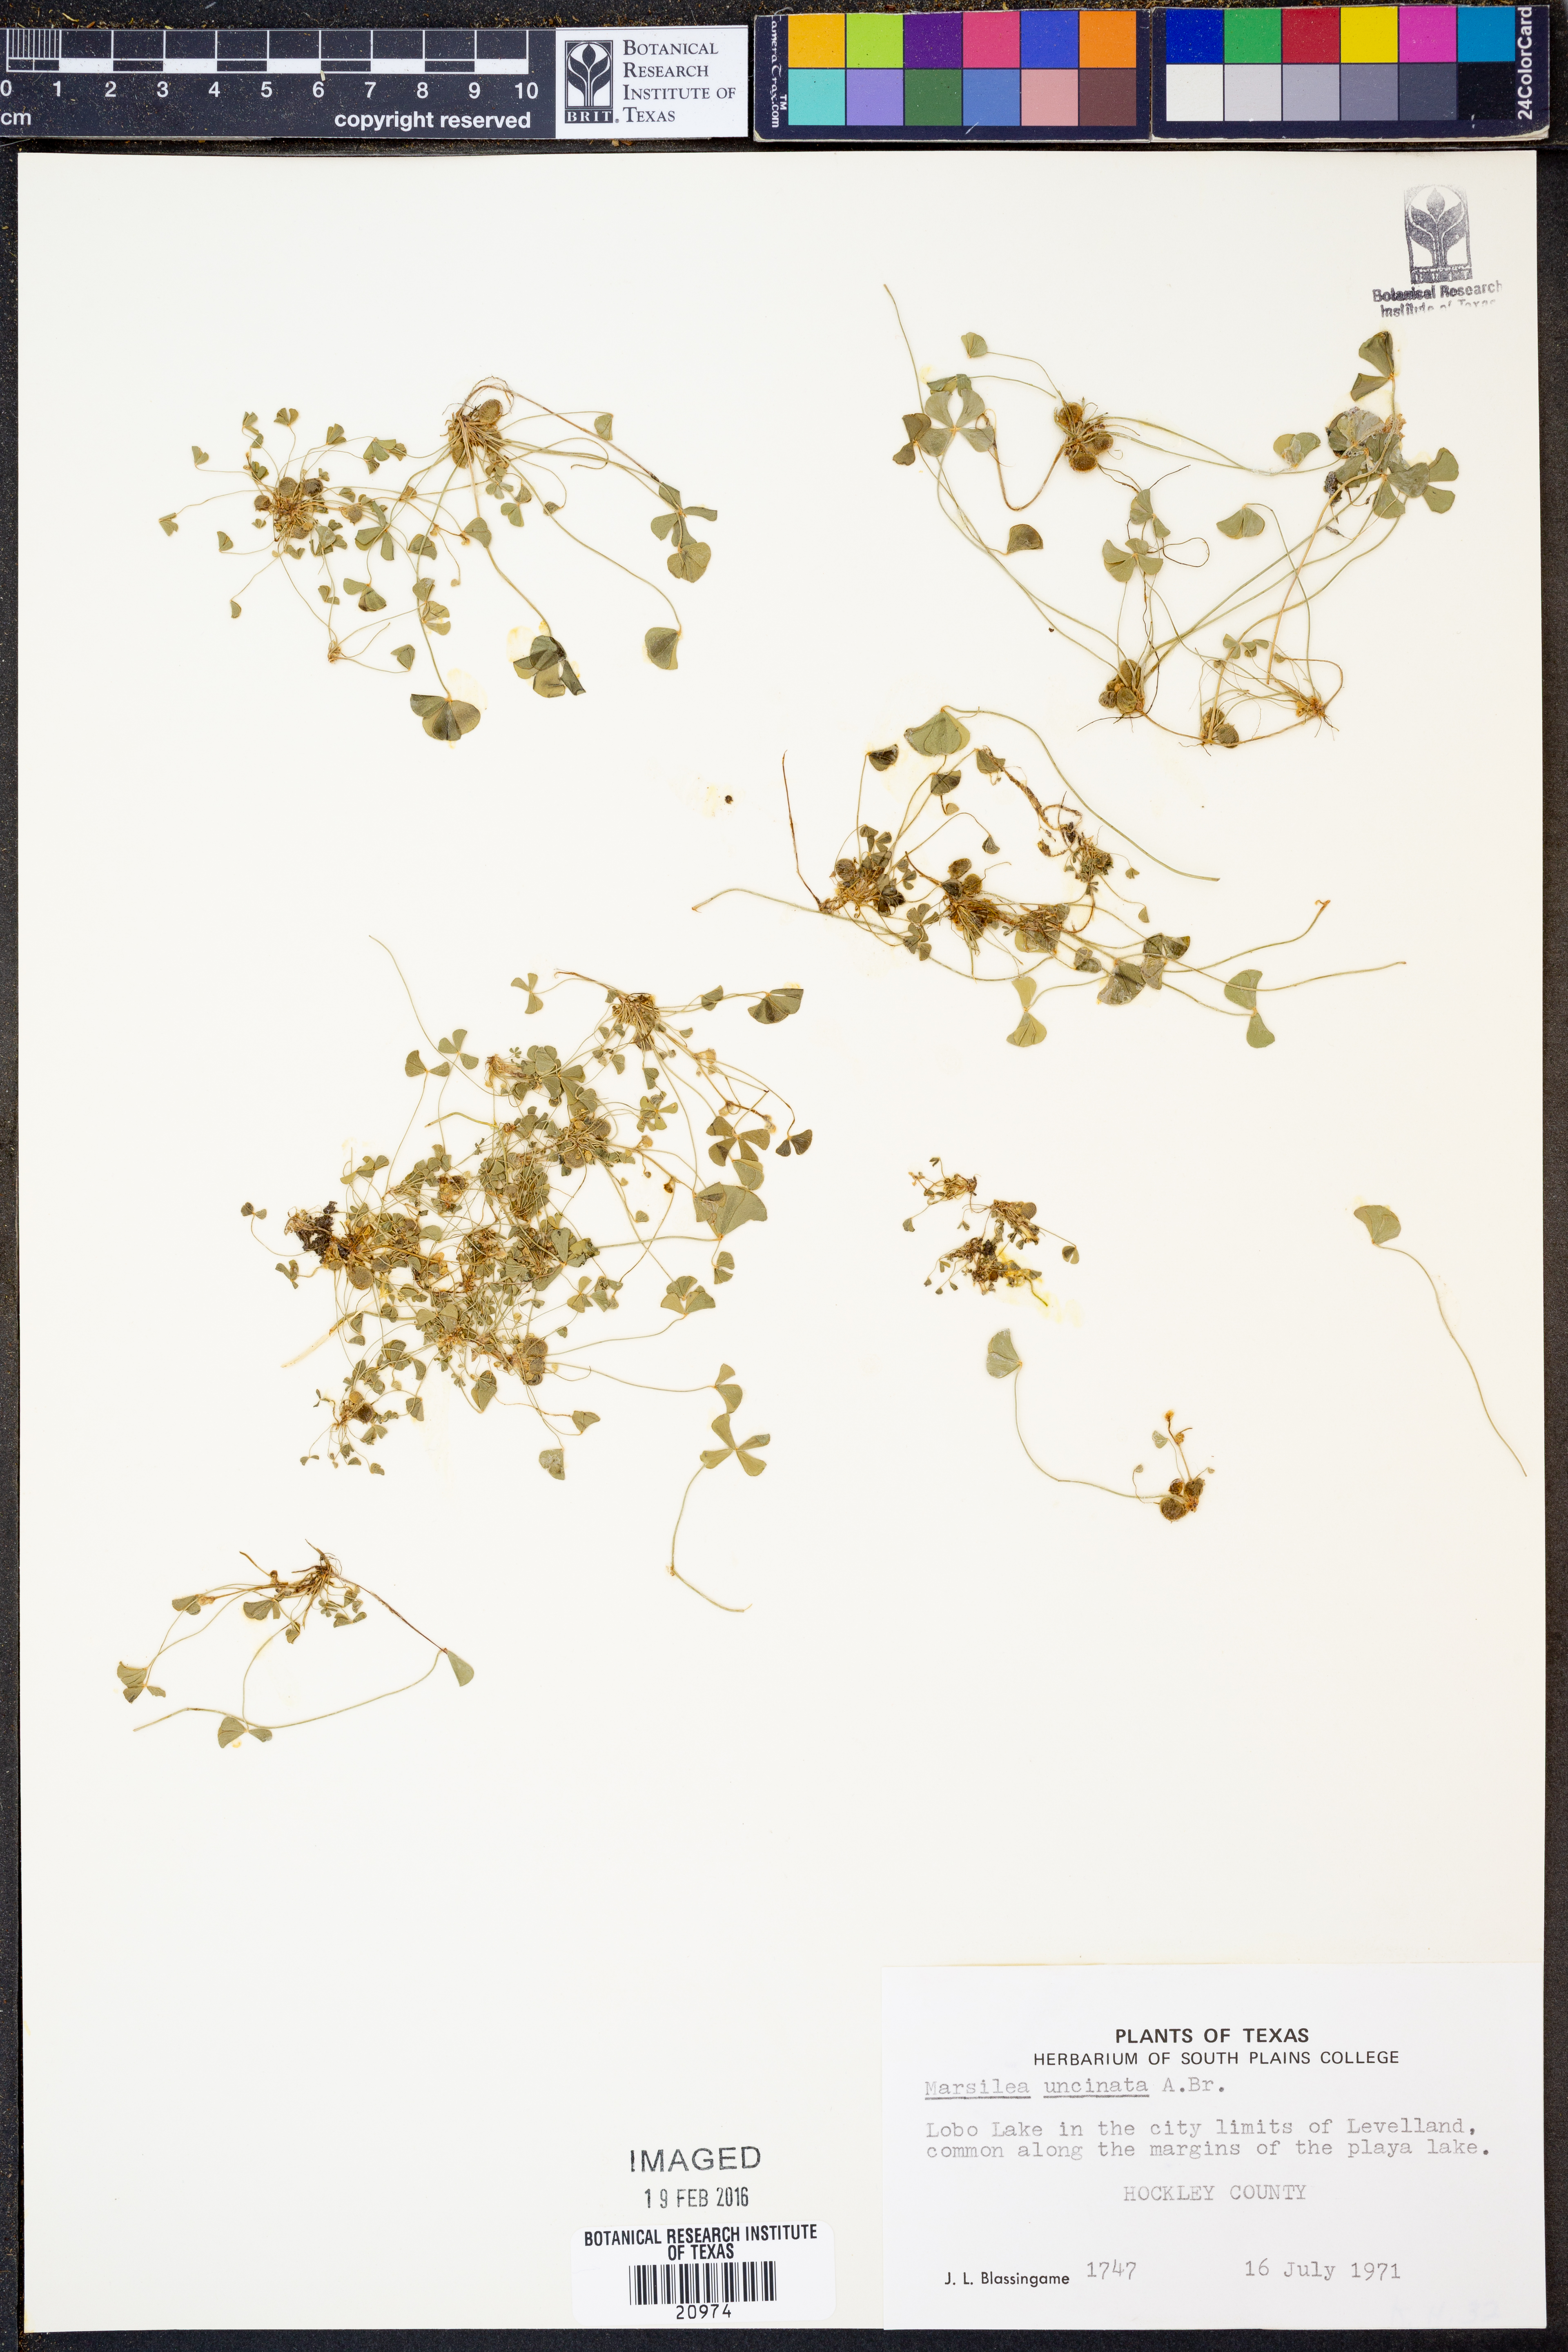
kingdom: Plantae
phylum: Tracheophyta
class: Polypodiopsida
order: Salviniales
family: Marsileaceae
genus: Marsilea
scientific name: Marsilea vestita
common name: Hooked-pepperwort
